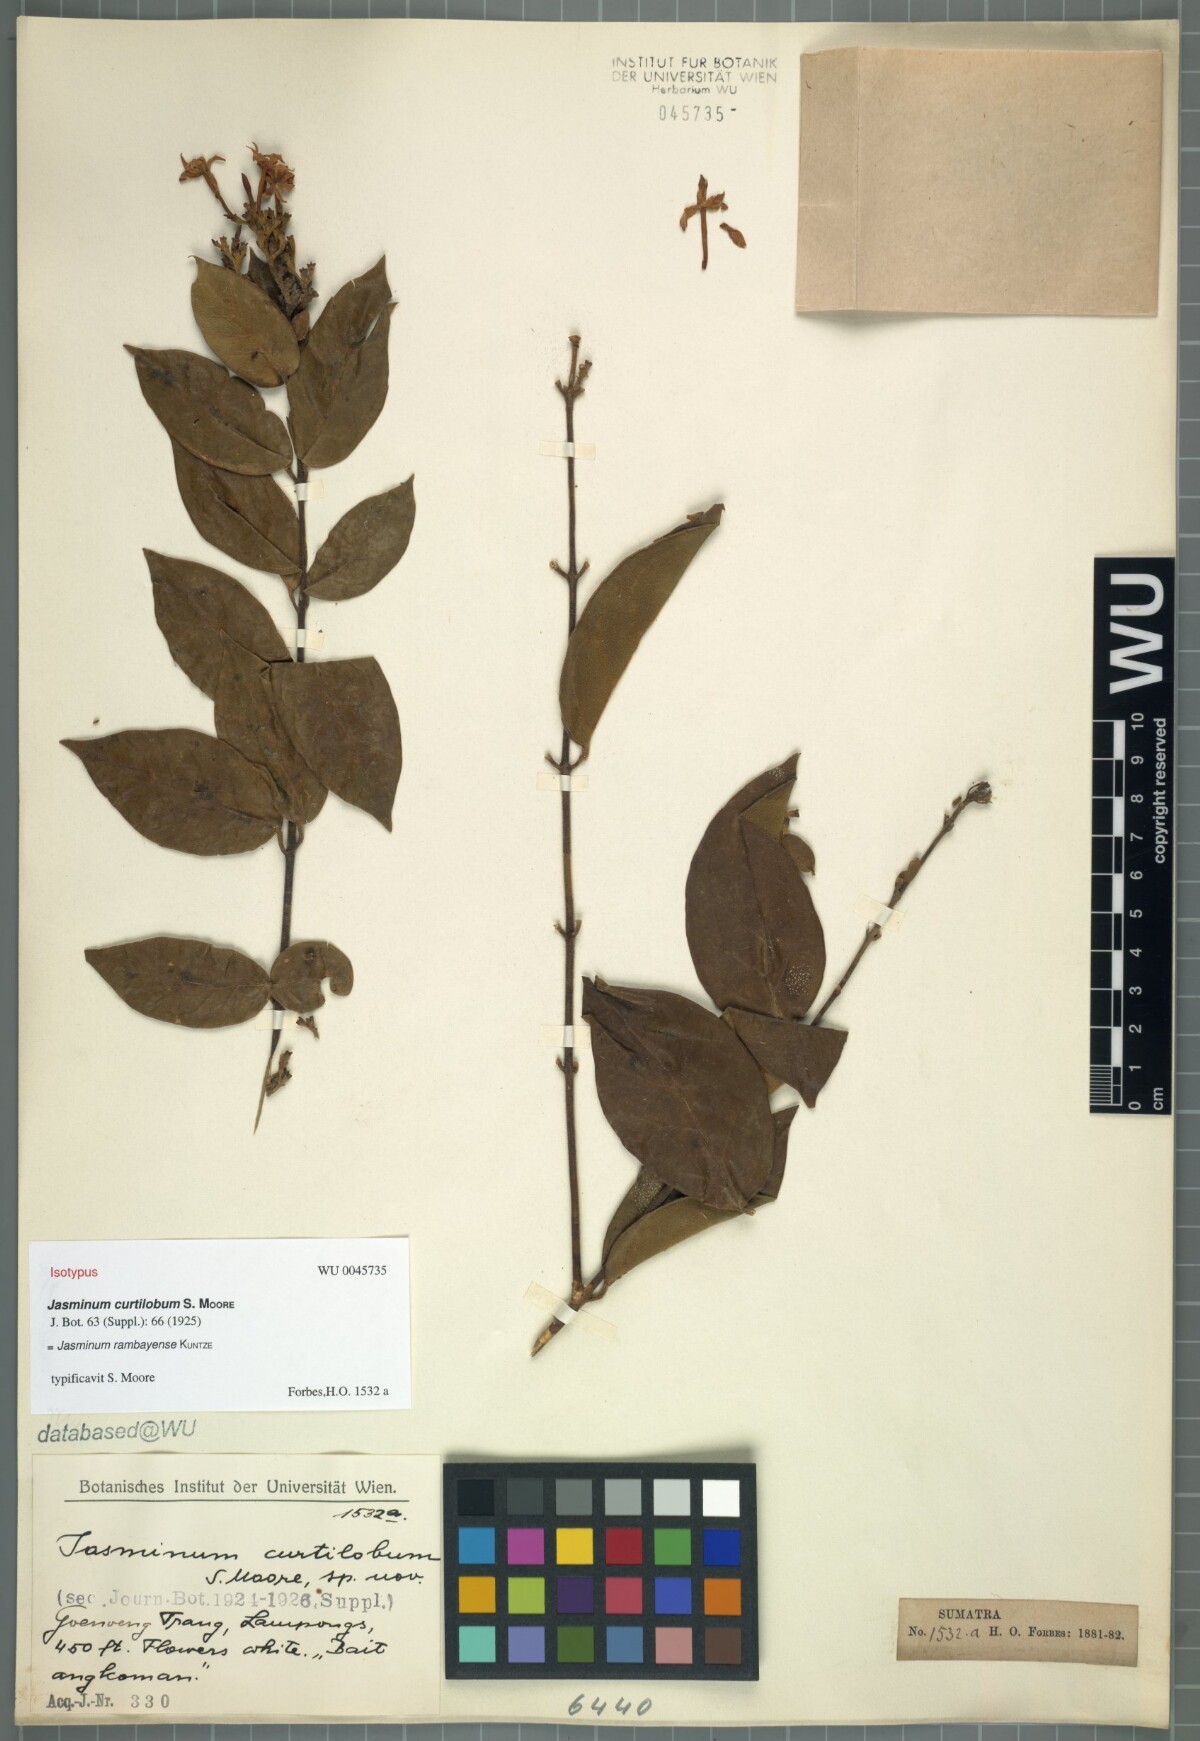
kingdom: Plantae
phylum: Tracheophyta
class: Magnoliopsida
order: Lamiales
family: Oleaceae
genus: Jasminum
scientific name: Jasminum rambayense
